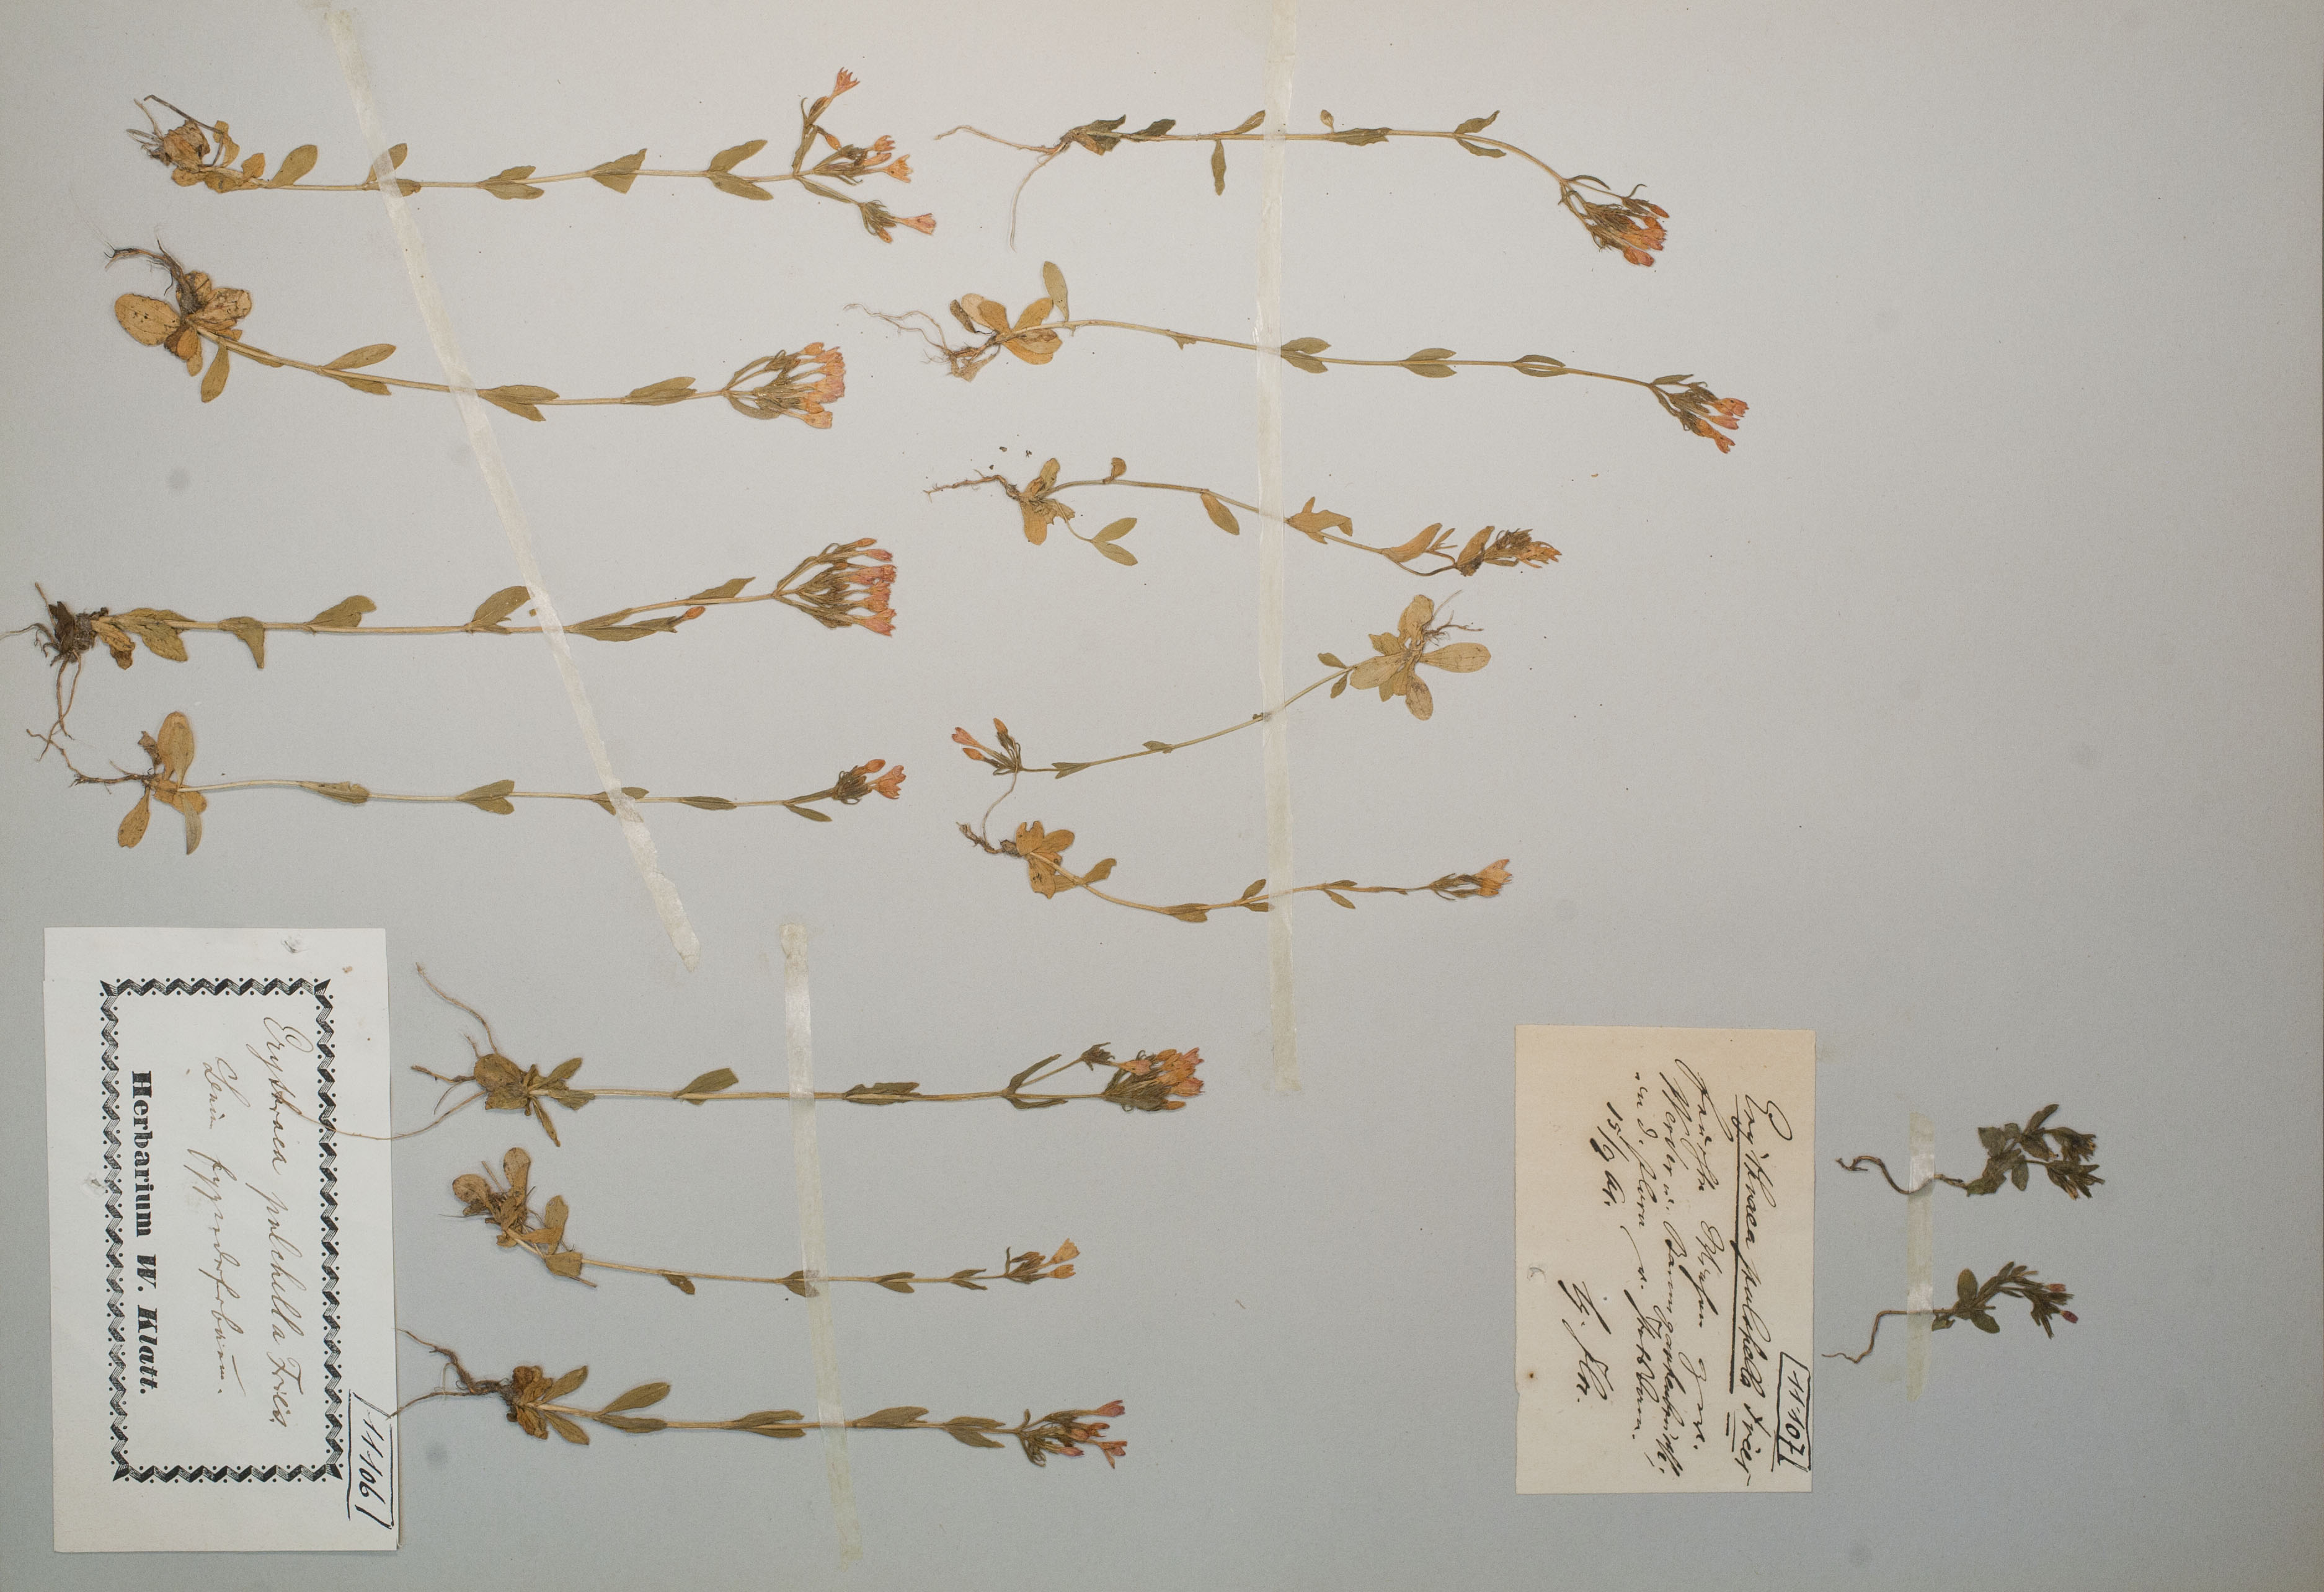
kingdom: Plantae
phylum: Tracheophyta
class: Magnoliopsida
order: Gentianales
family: Gentianaceae
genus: Centaurium
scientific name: Centaurium pulchellum
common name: Lesser centaury
